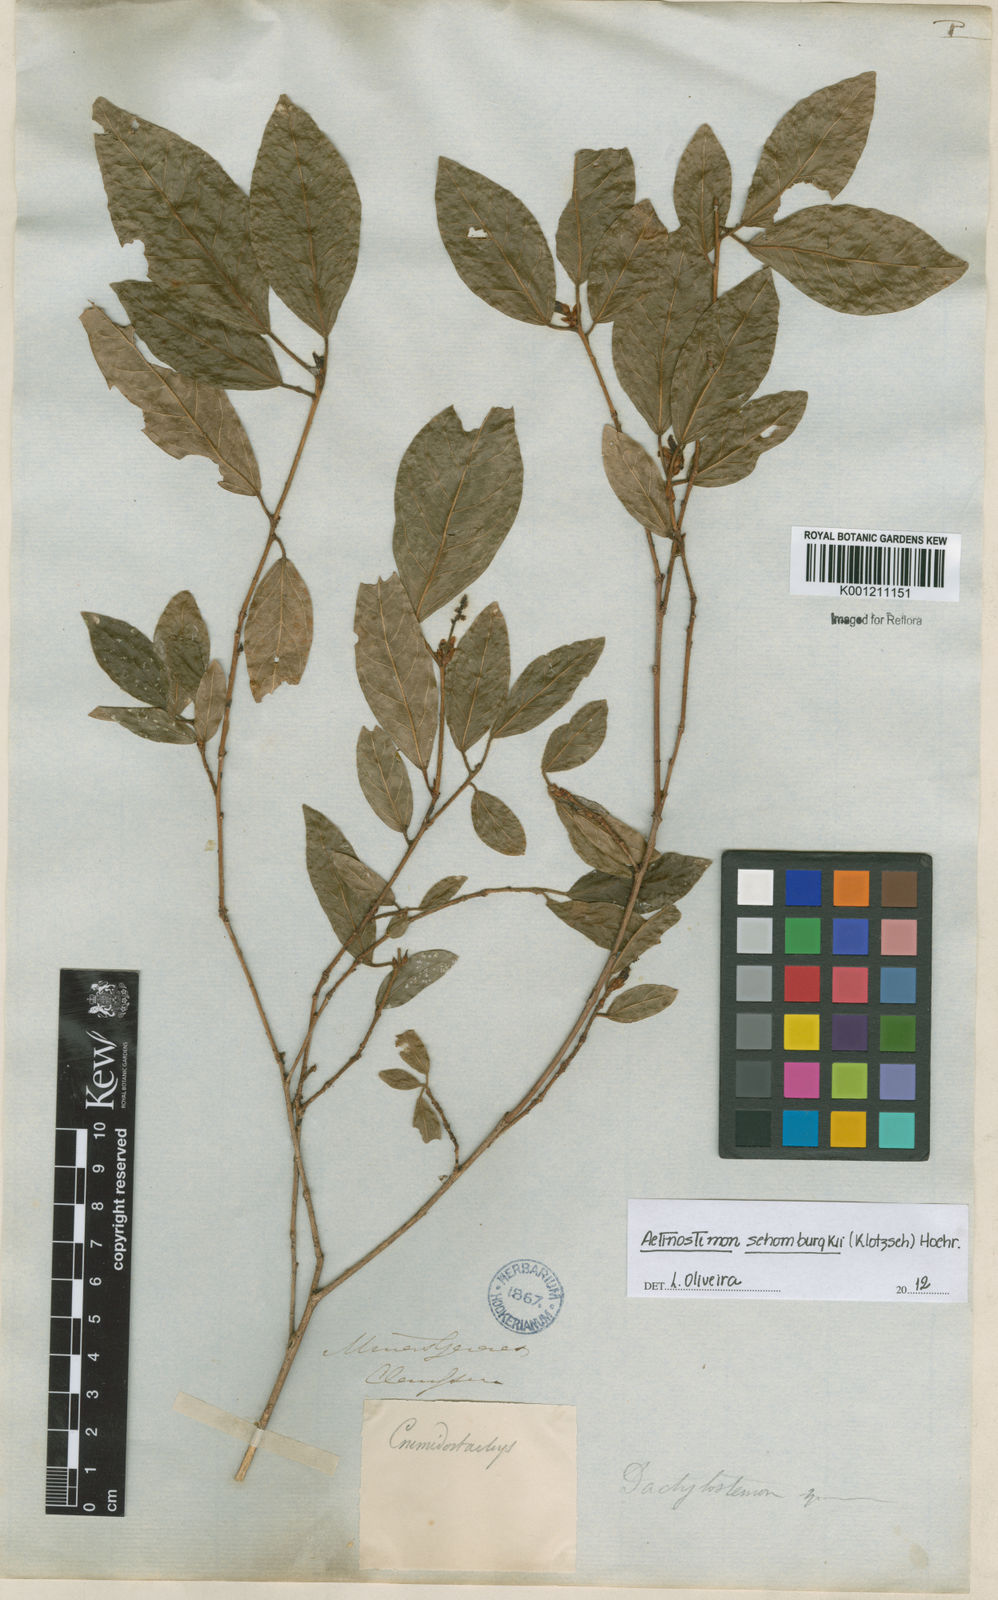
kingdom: Plantae
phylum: Tracheophyta
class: Magnoliopsida
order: Malpighiales
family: Euphorbiaceae
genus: Actinostemon
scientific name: Actinostemon schomburgkii
